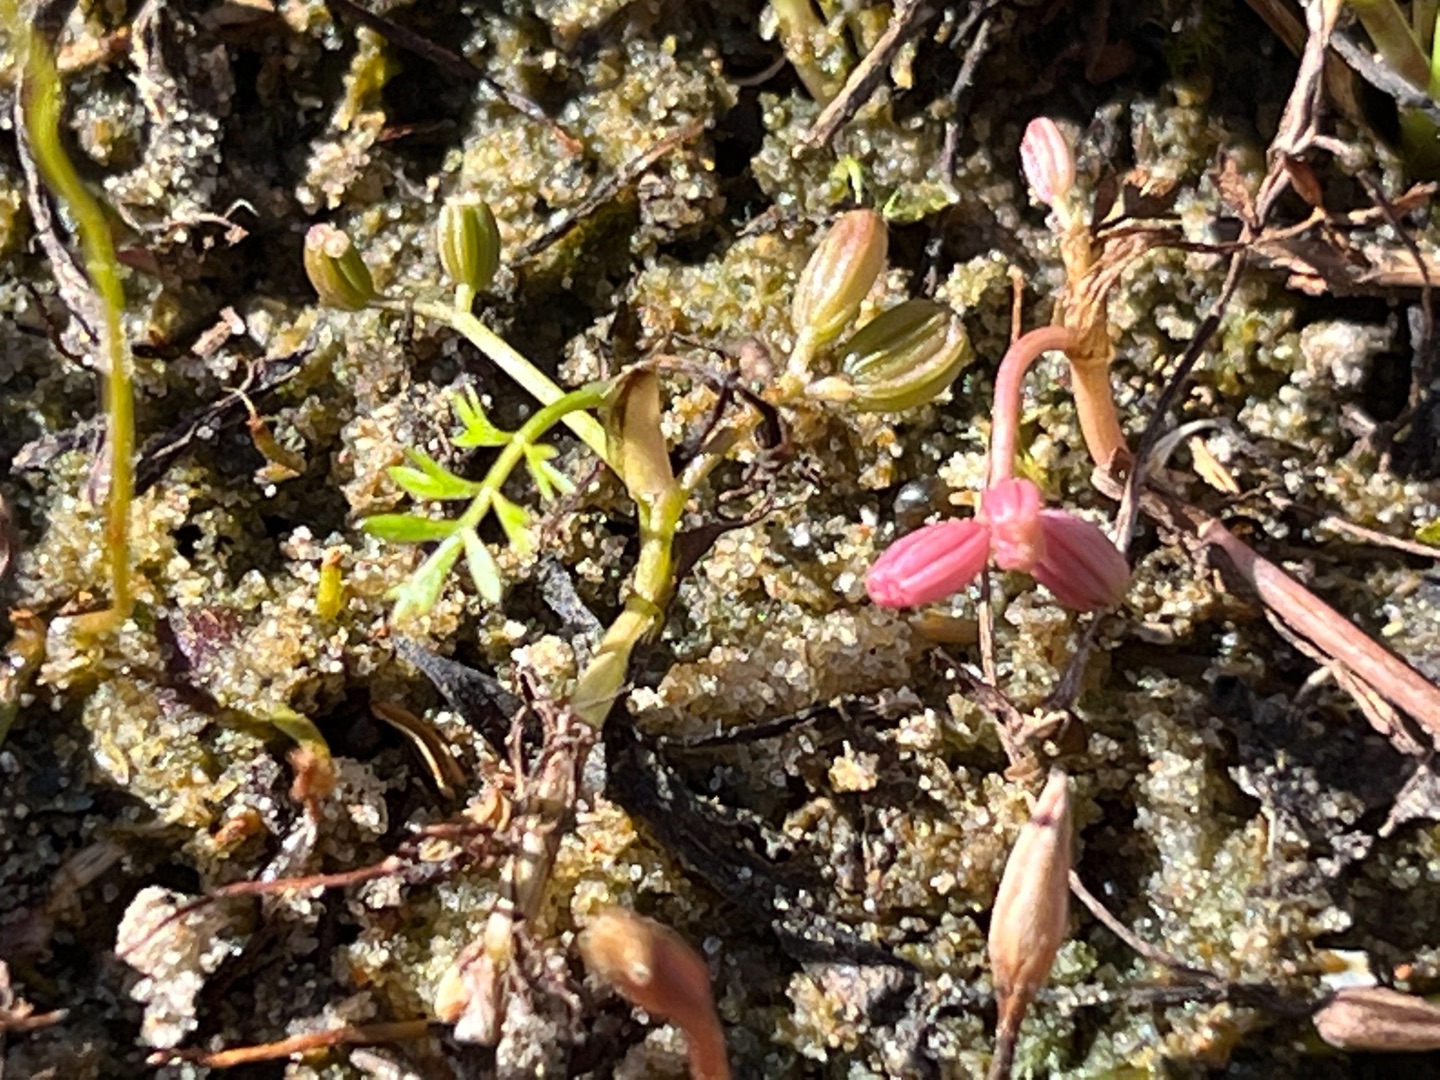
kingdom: Plantae
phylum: Tracheophyta
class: Magnoliopsida
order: Apiales
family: Apiaceae
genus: Helosciadium
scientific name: Helosciadium inundatum
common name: Svømmende sumpskærm
